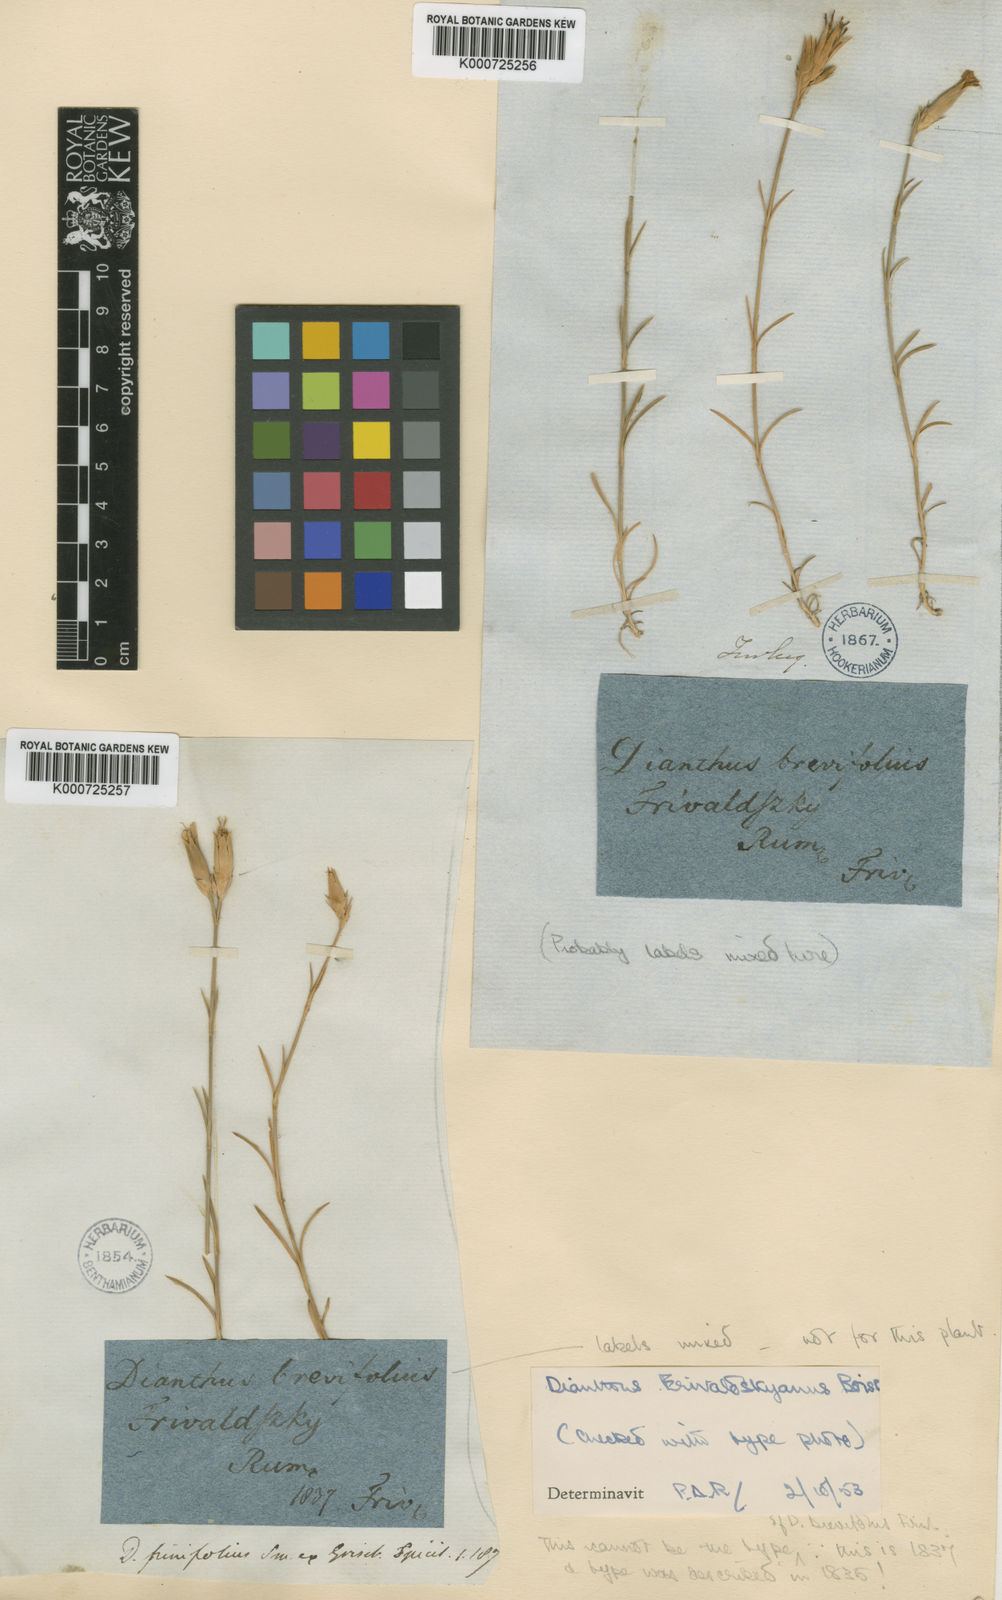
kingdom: Plantae
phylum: Tracheophyta
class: Magnoliopsida
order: Caryophyllales
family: Caryophyllaceae
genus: Dianthus
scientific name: Dianthus gracilis
